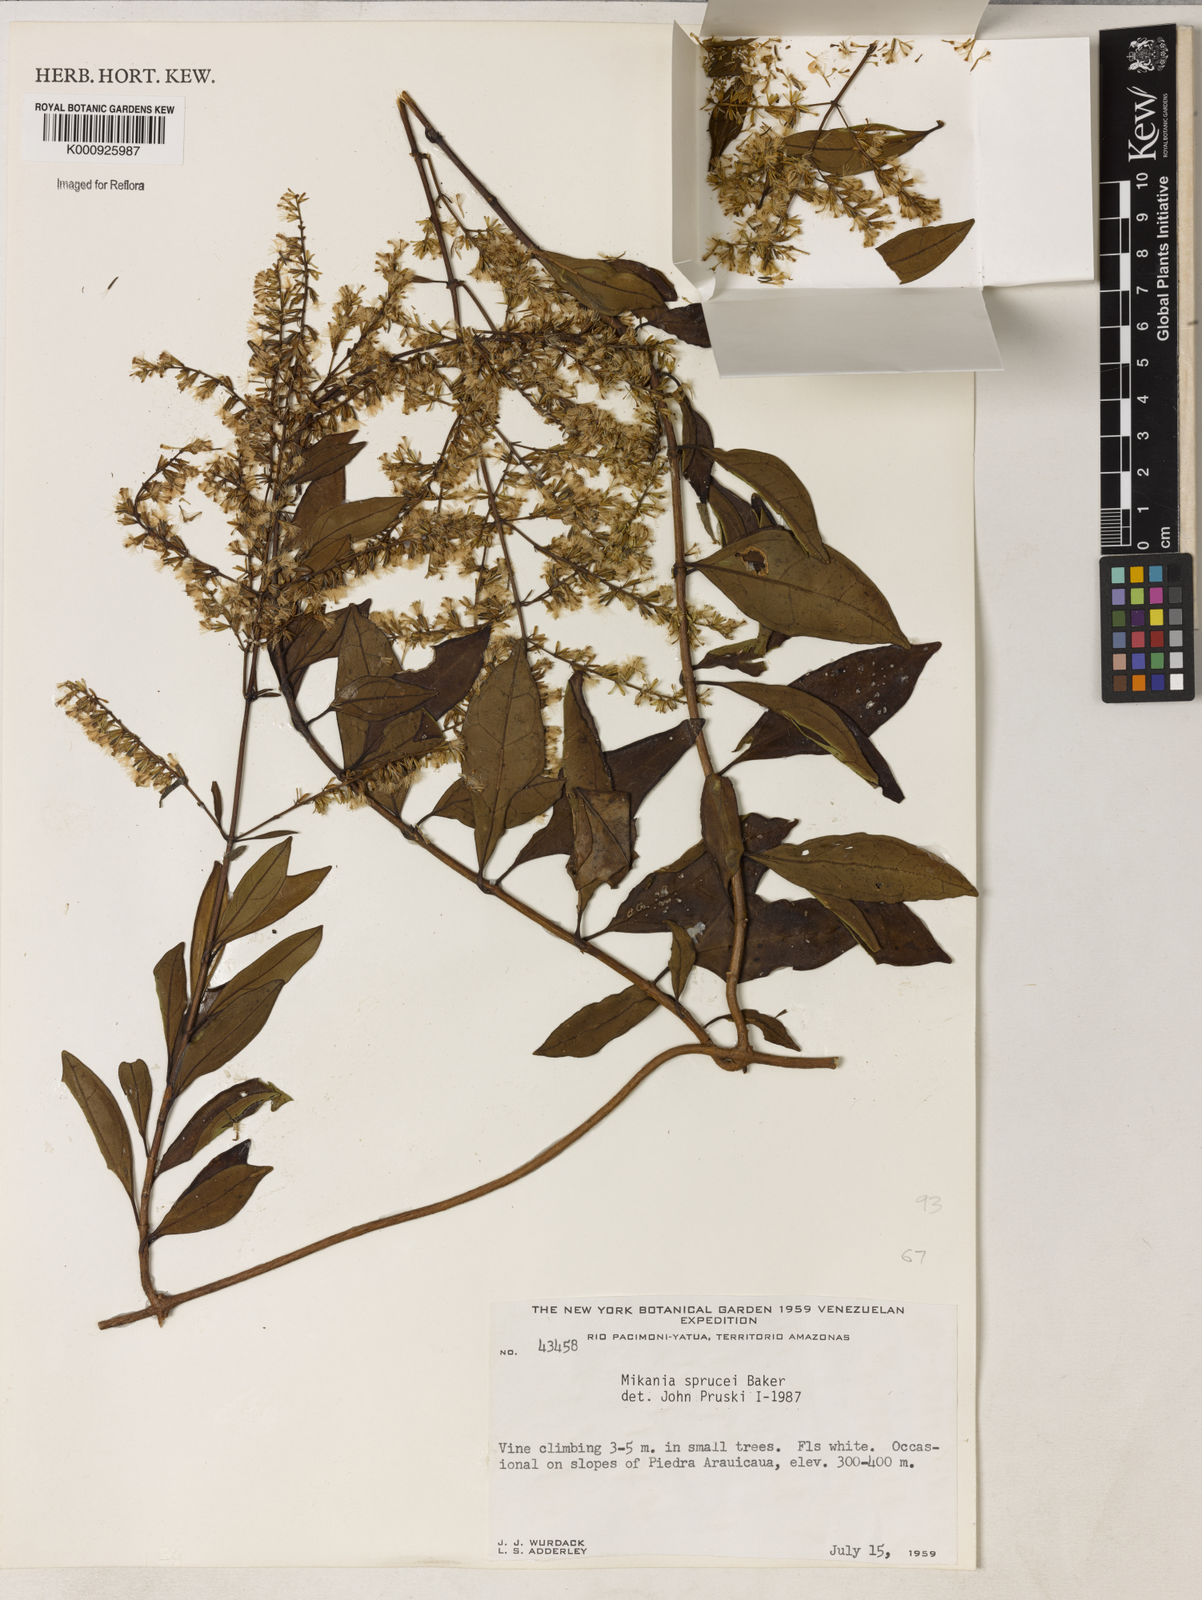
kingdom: Plantae
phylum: Tracheophyta
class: Magnoliopsida
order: Asterales
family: Asteraceae
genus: Mikania
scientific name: Mikania
